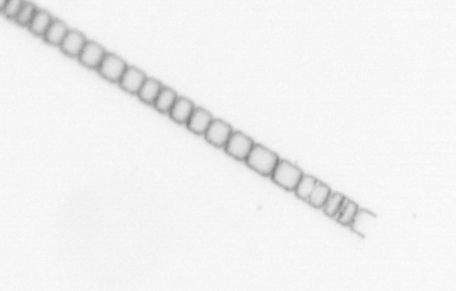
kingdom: Chromista
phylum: Ochrophyta
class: Bacillariophyceae
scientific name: Bacillariophyceae
